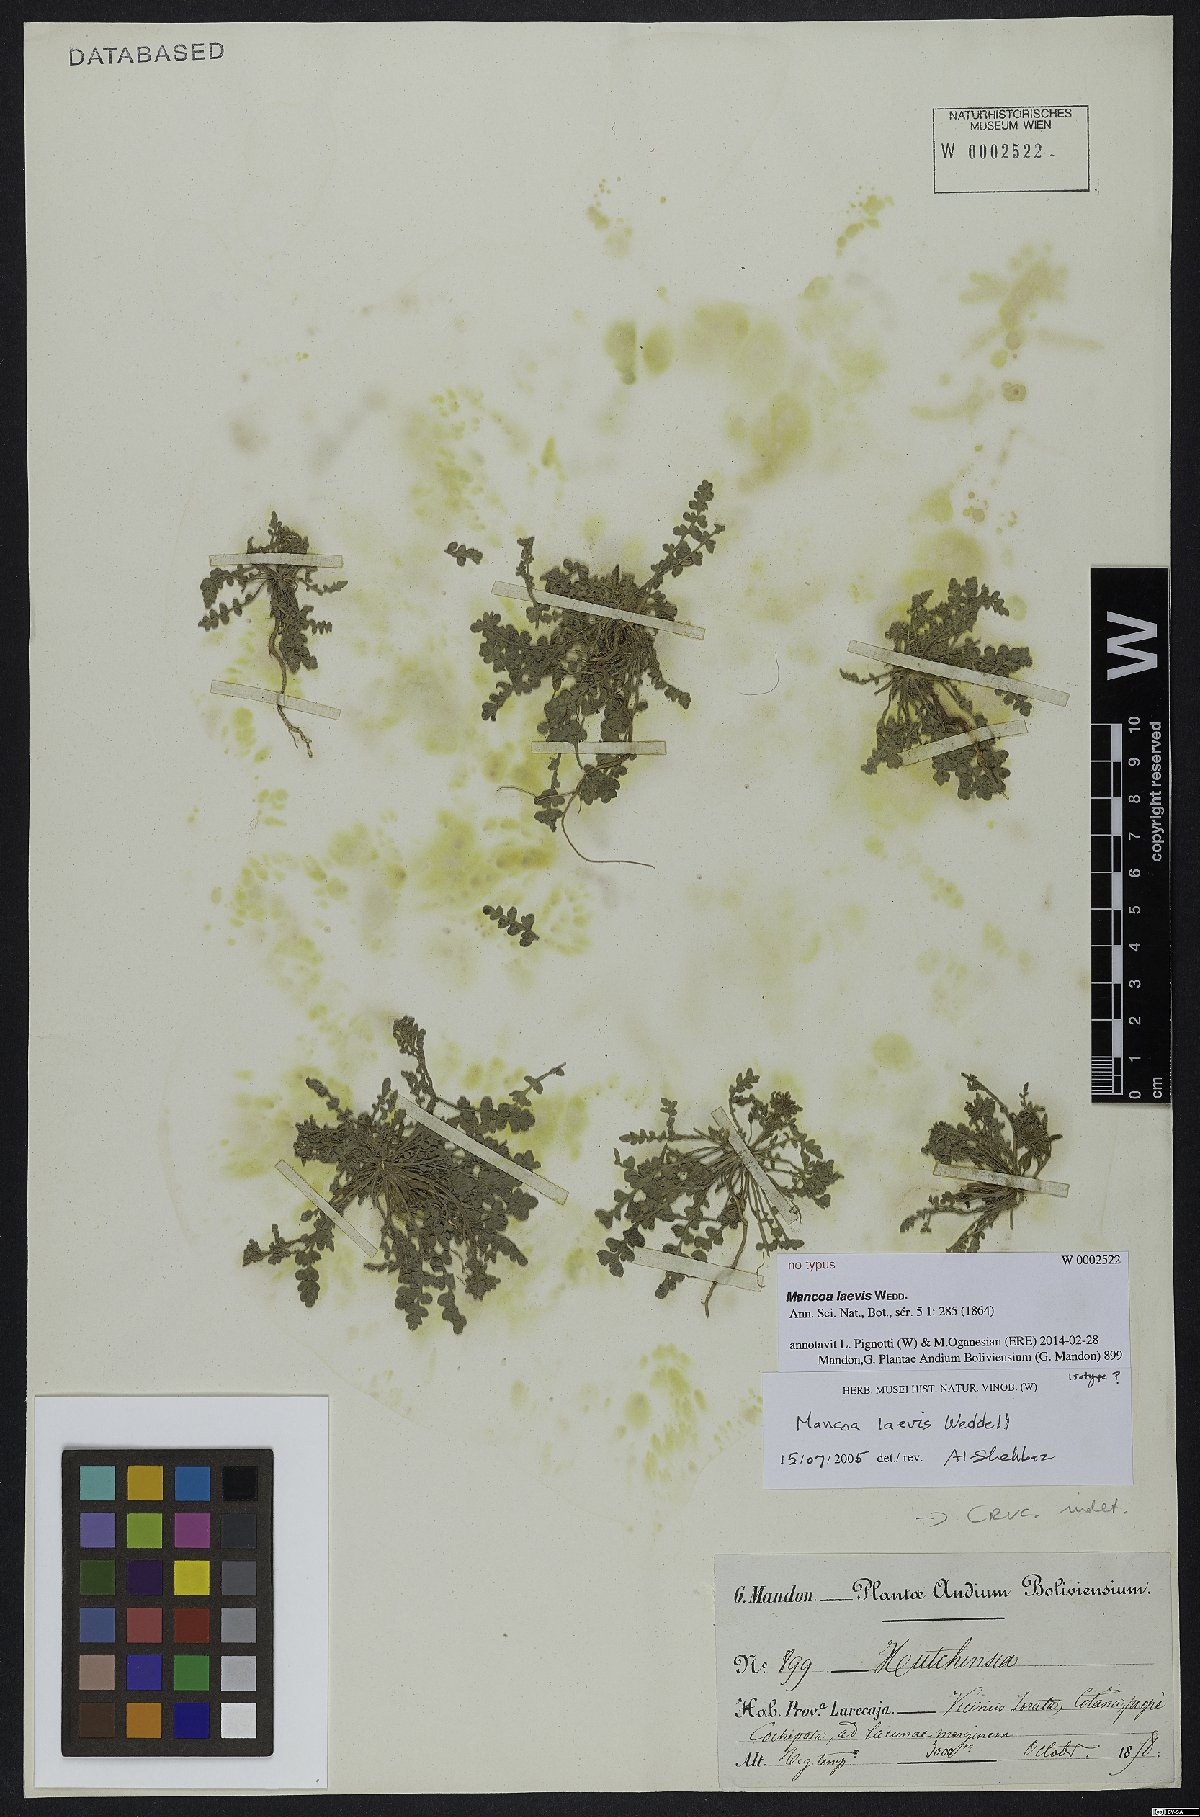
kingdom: Plantae
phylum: Tracheophyta
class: Magnoliopsida
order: Brassicales
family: Brassicaceae
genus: Mancoa
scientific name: Mancoa laevis
